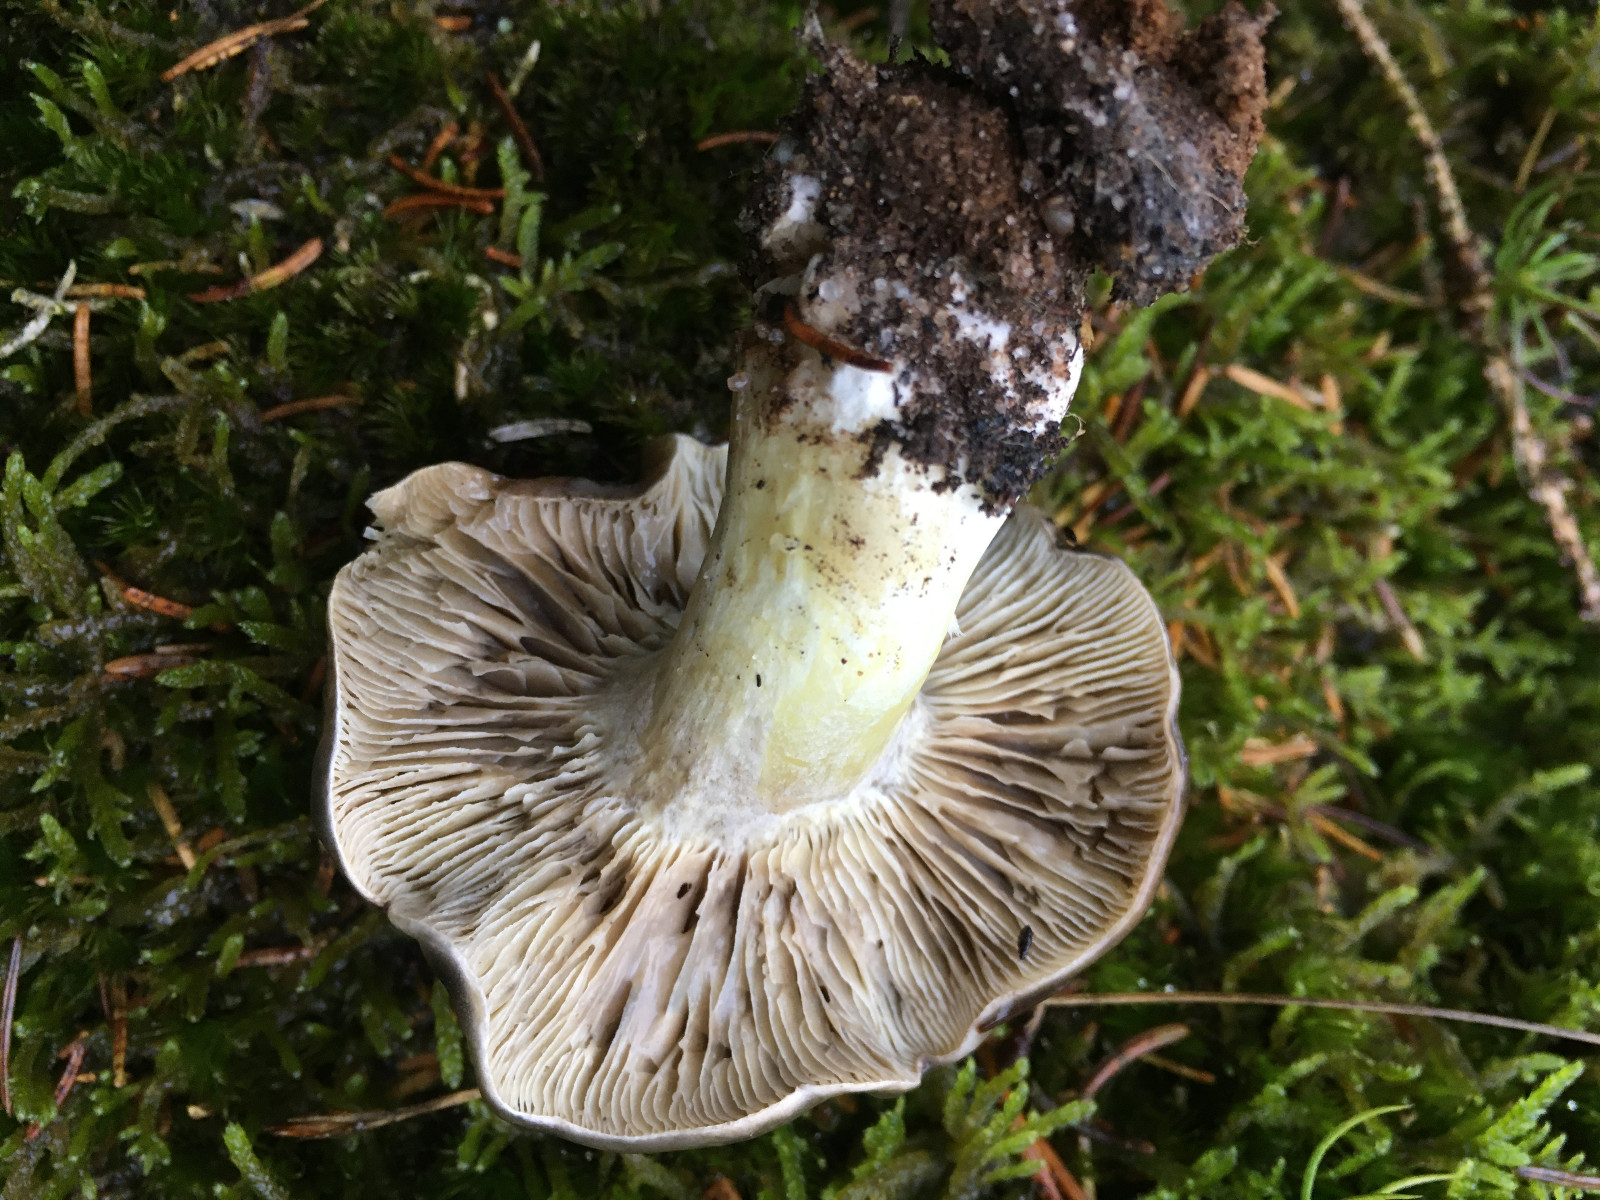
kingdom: Fungi
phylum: Basidiomycota
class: Agaricomycetes
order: Agaricales
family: Tricholomataceae
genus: Tricholoma
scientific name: Tricholoma portentosum
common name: grå ridderhat
